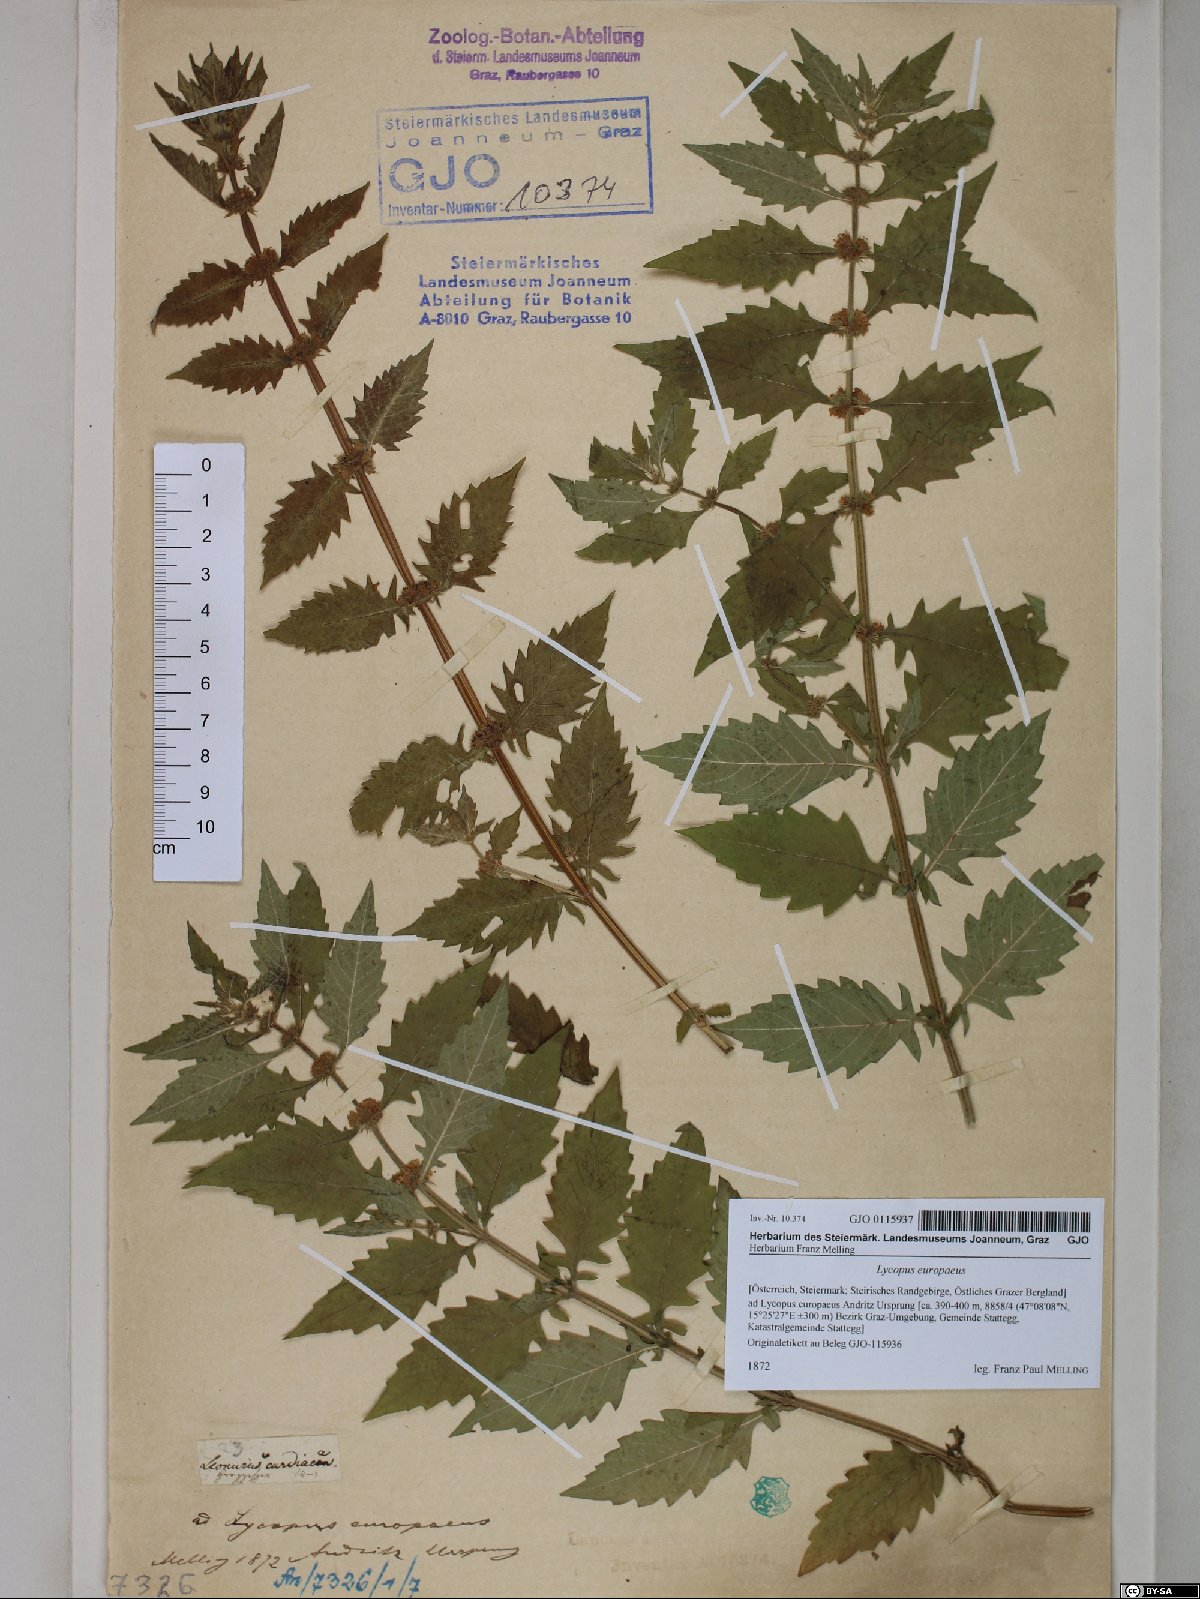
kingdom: Plantae
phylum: Tracheophyta
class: Magnoliopsida
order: Lamiales
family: Lamiaceae
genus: Lycopus
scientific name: Lycopus europaeus
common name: European bugleweed
